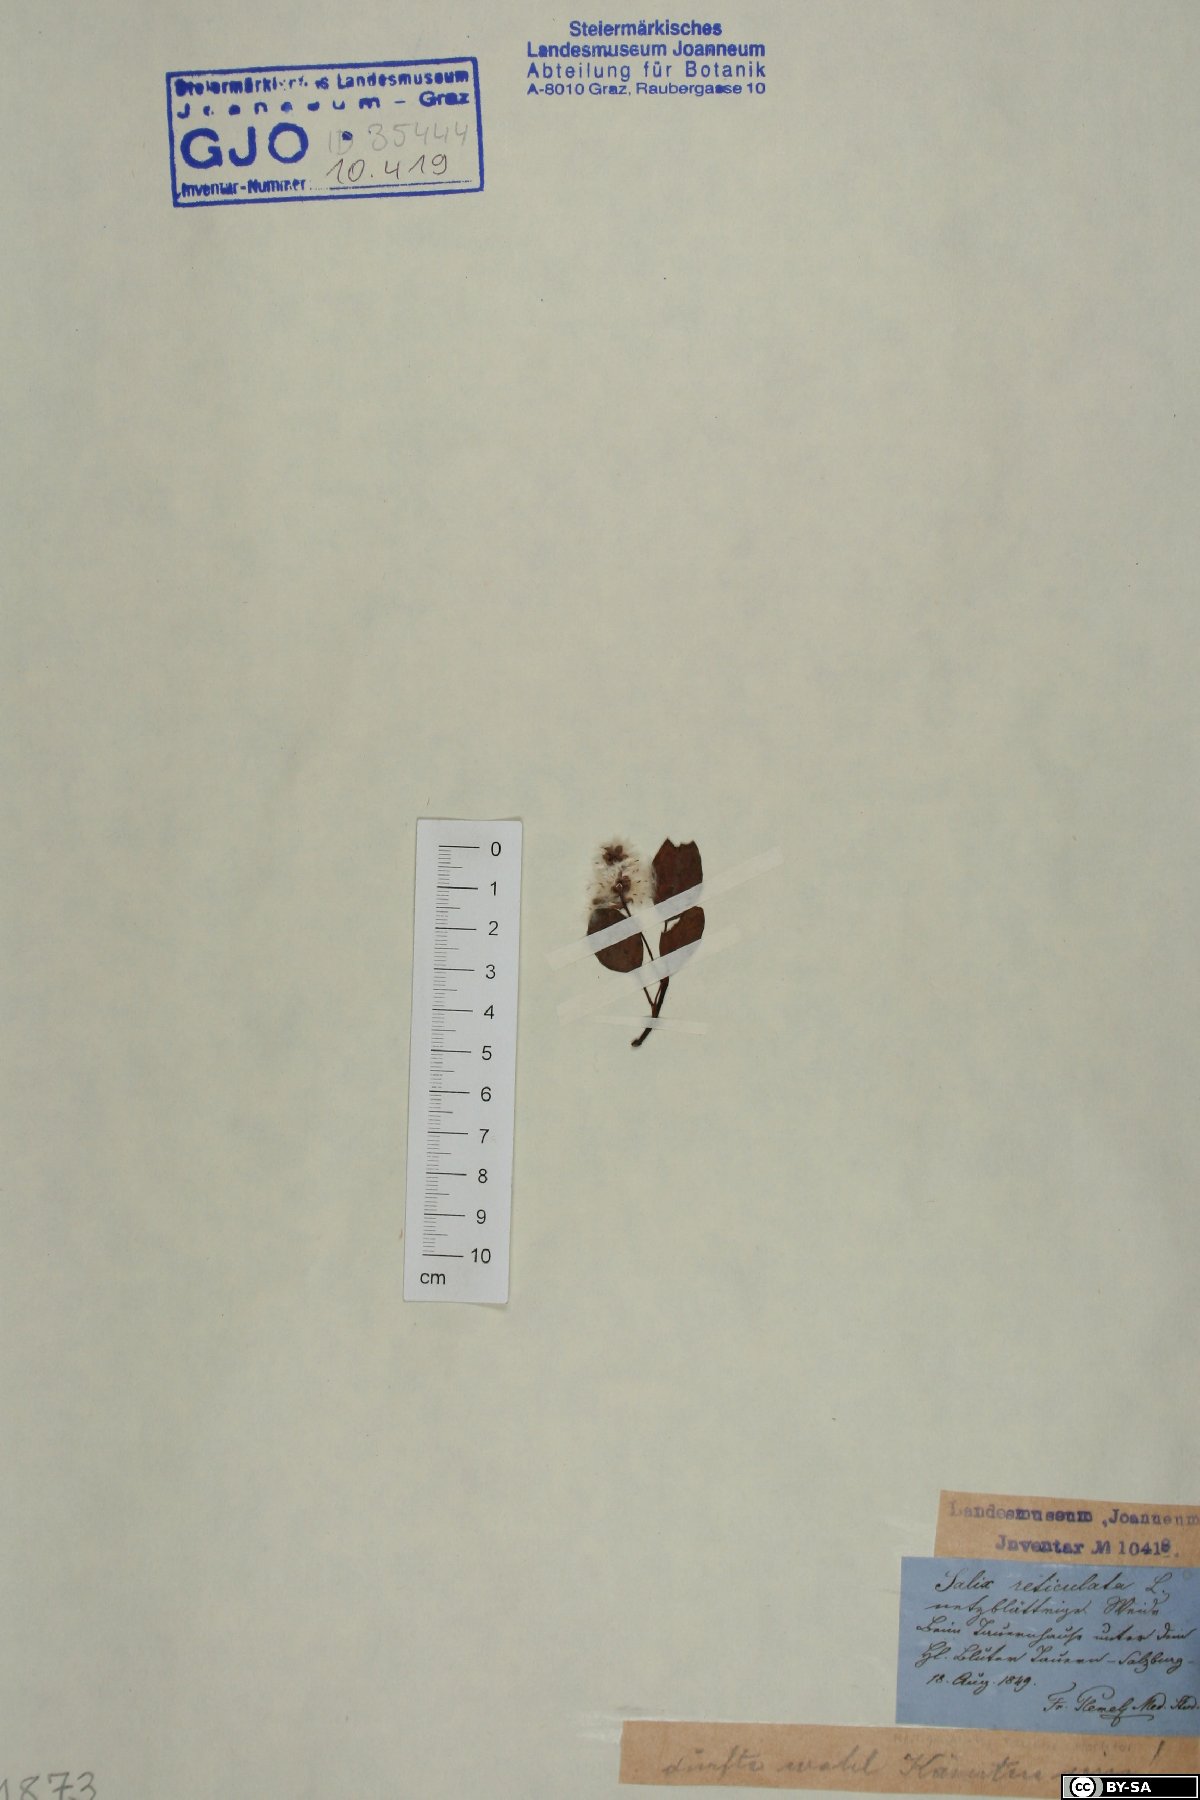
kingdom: Plantae
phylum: Tracheophyta
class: Magnoliopsida
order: Malpighiales
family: Salicaceae
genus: Salix
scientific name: Salix reticulata
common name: Net-leaved willow
